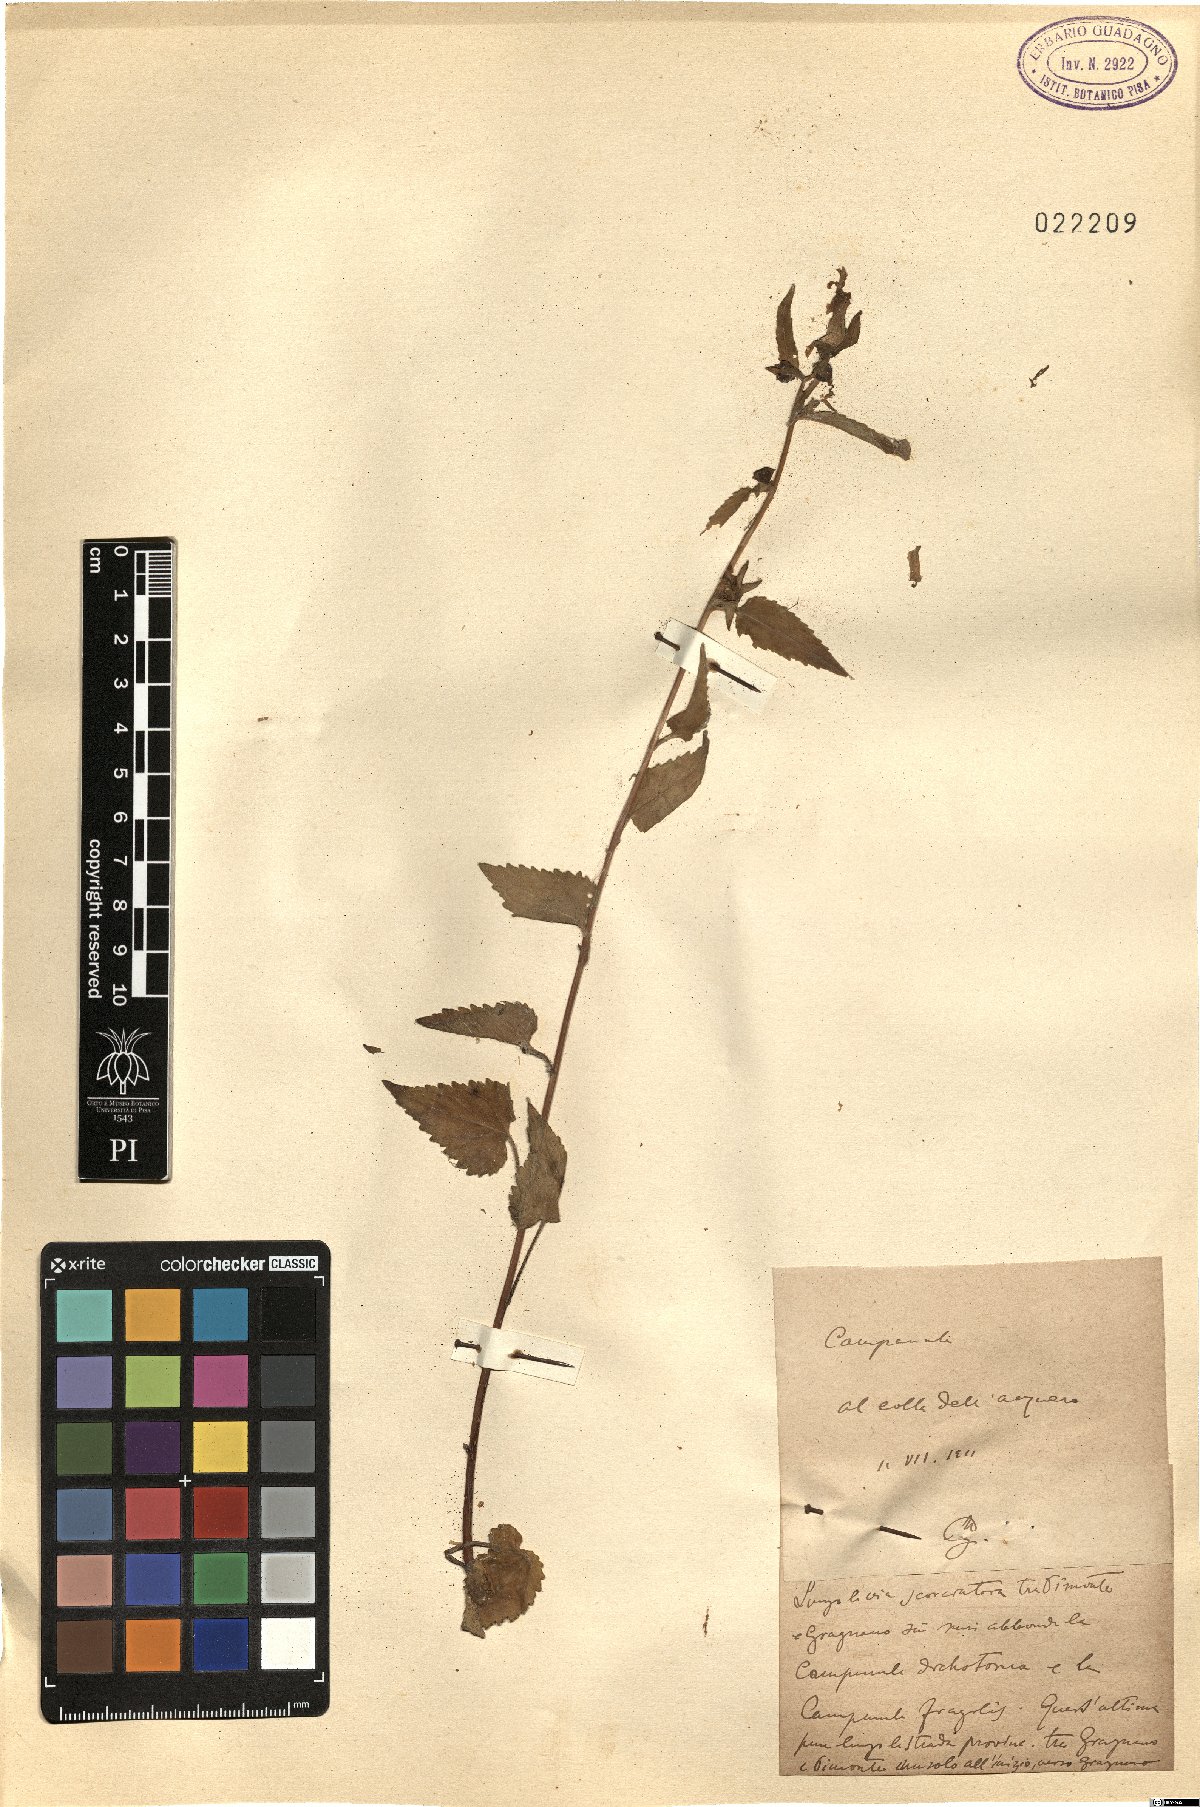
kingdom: Plantae
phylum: Tracheophyta
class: Magnoliopsida
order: Asterales
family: Campanulaceae
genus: Campanula
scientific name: Campanula
